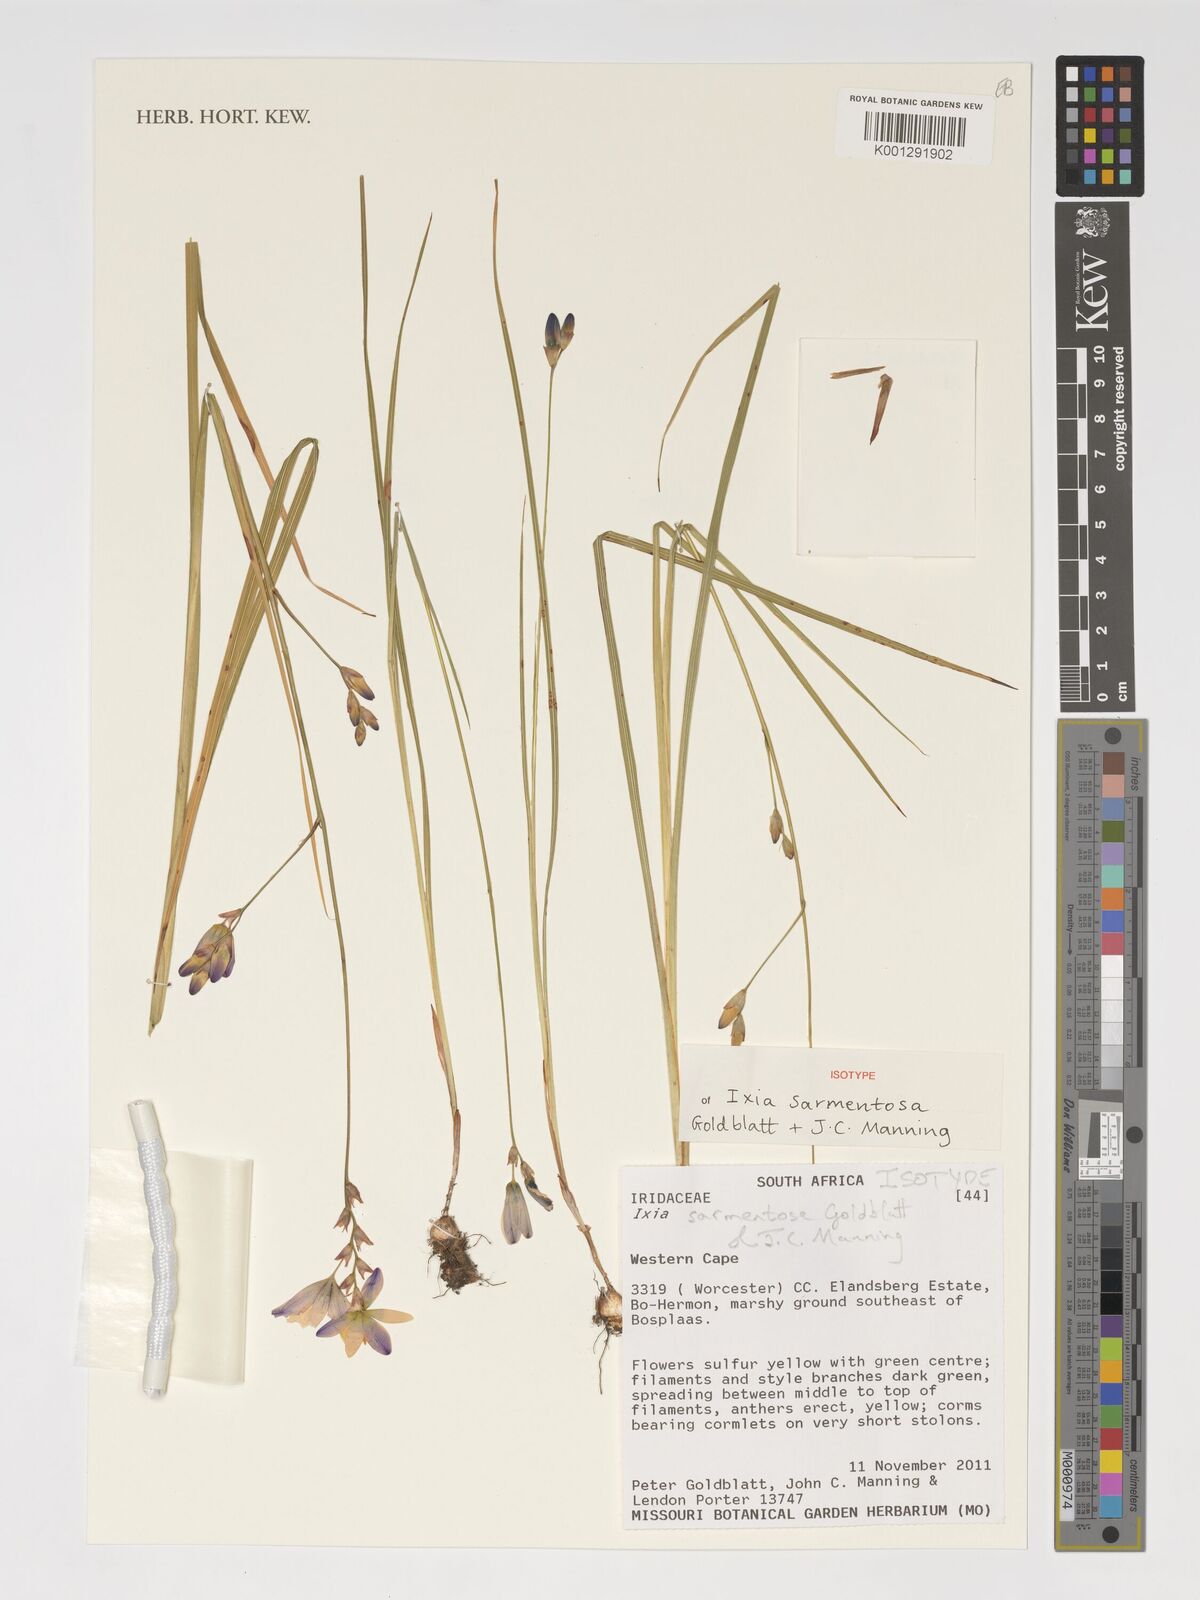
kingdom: Plantae
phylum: Tracheophyta
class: Liliopsida
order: Asparagales
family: Iridaceae
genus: Ixia
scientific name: Ixia sarmentosa
